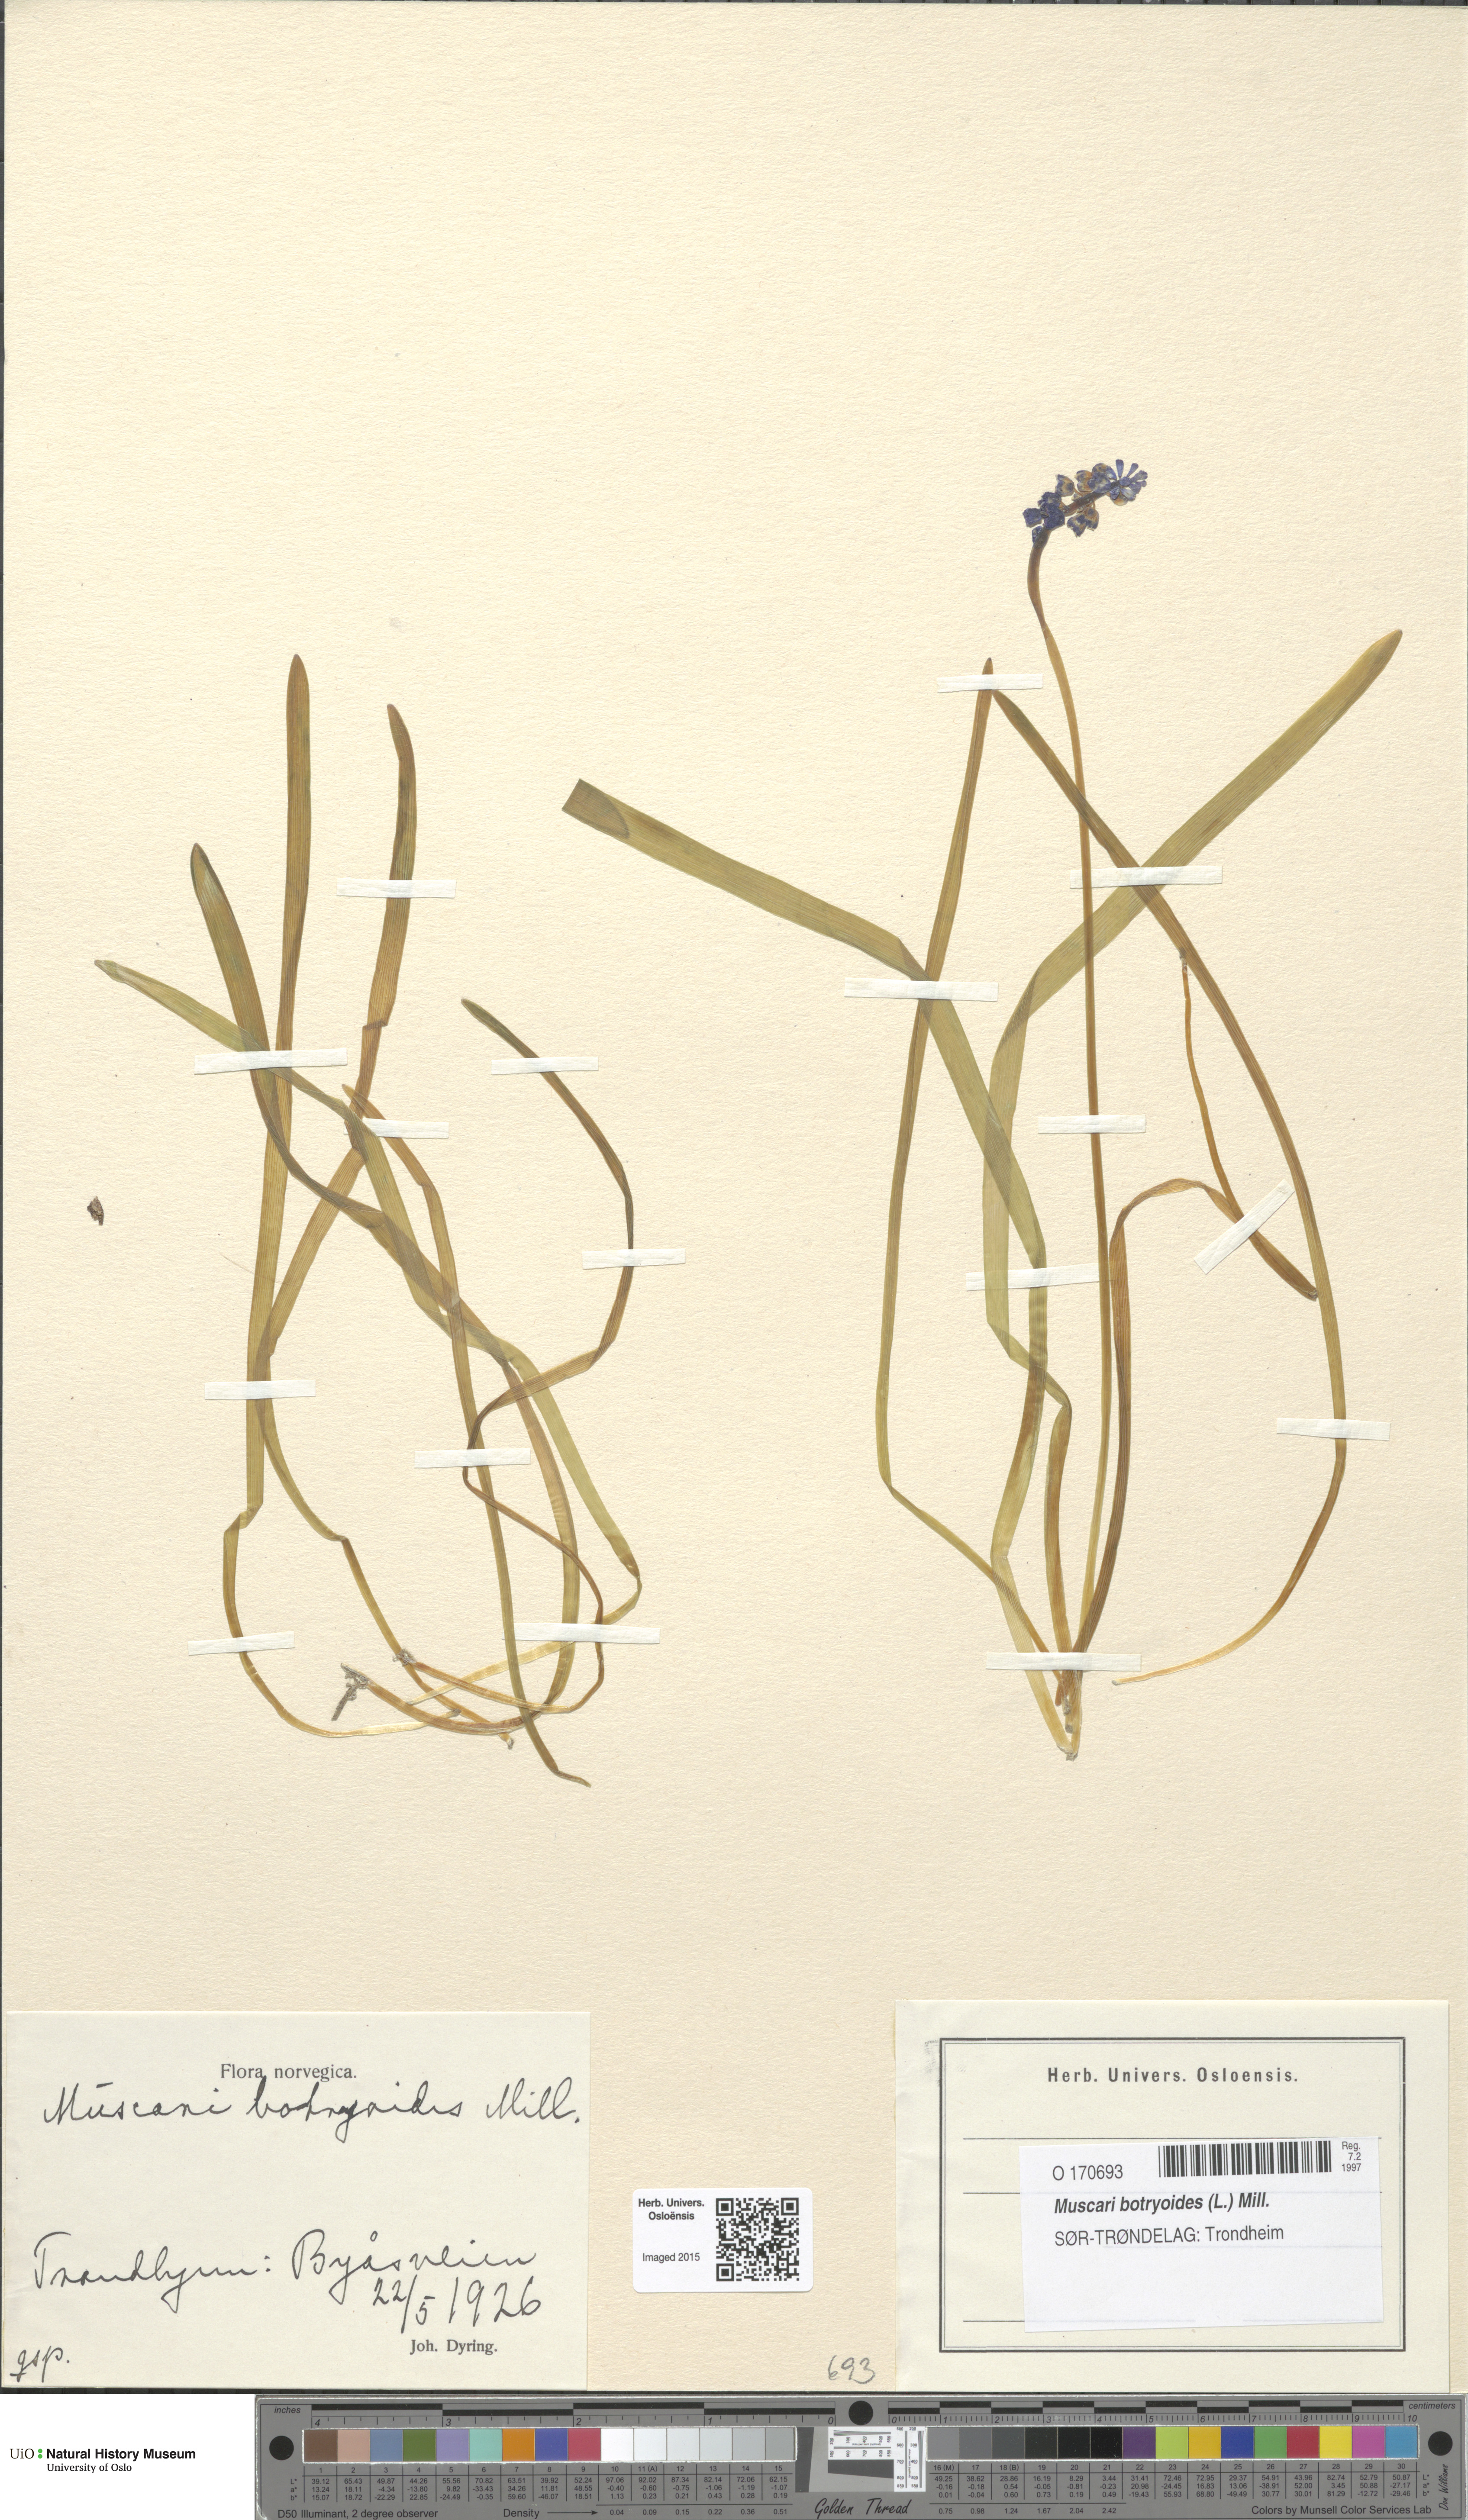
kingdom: Plantae
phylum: Tracheophyta
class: Liliopsida
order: Asparagales
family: Asparagaceae
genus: Muscari
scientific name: Muscari botryoides
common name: Compact grape-hyacinth
